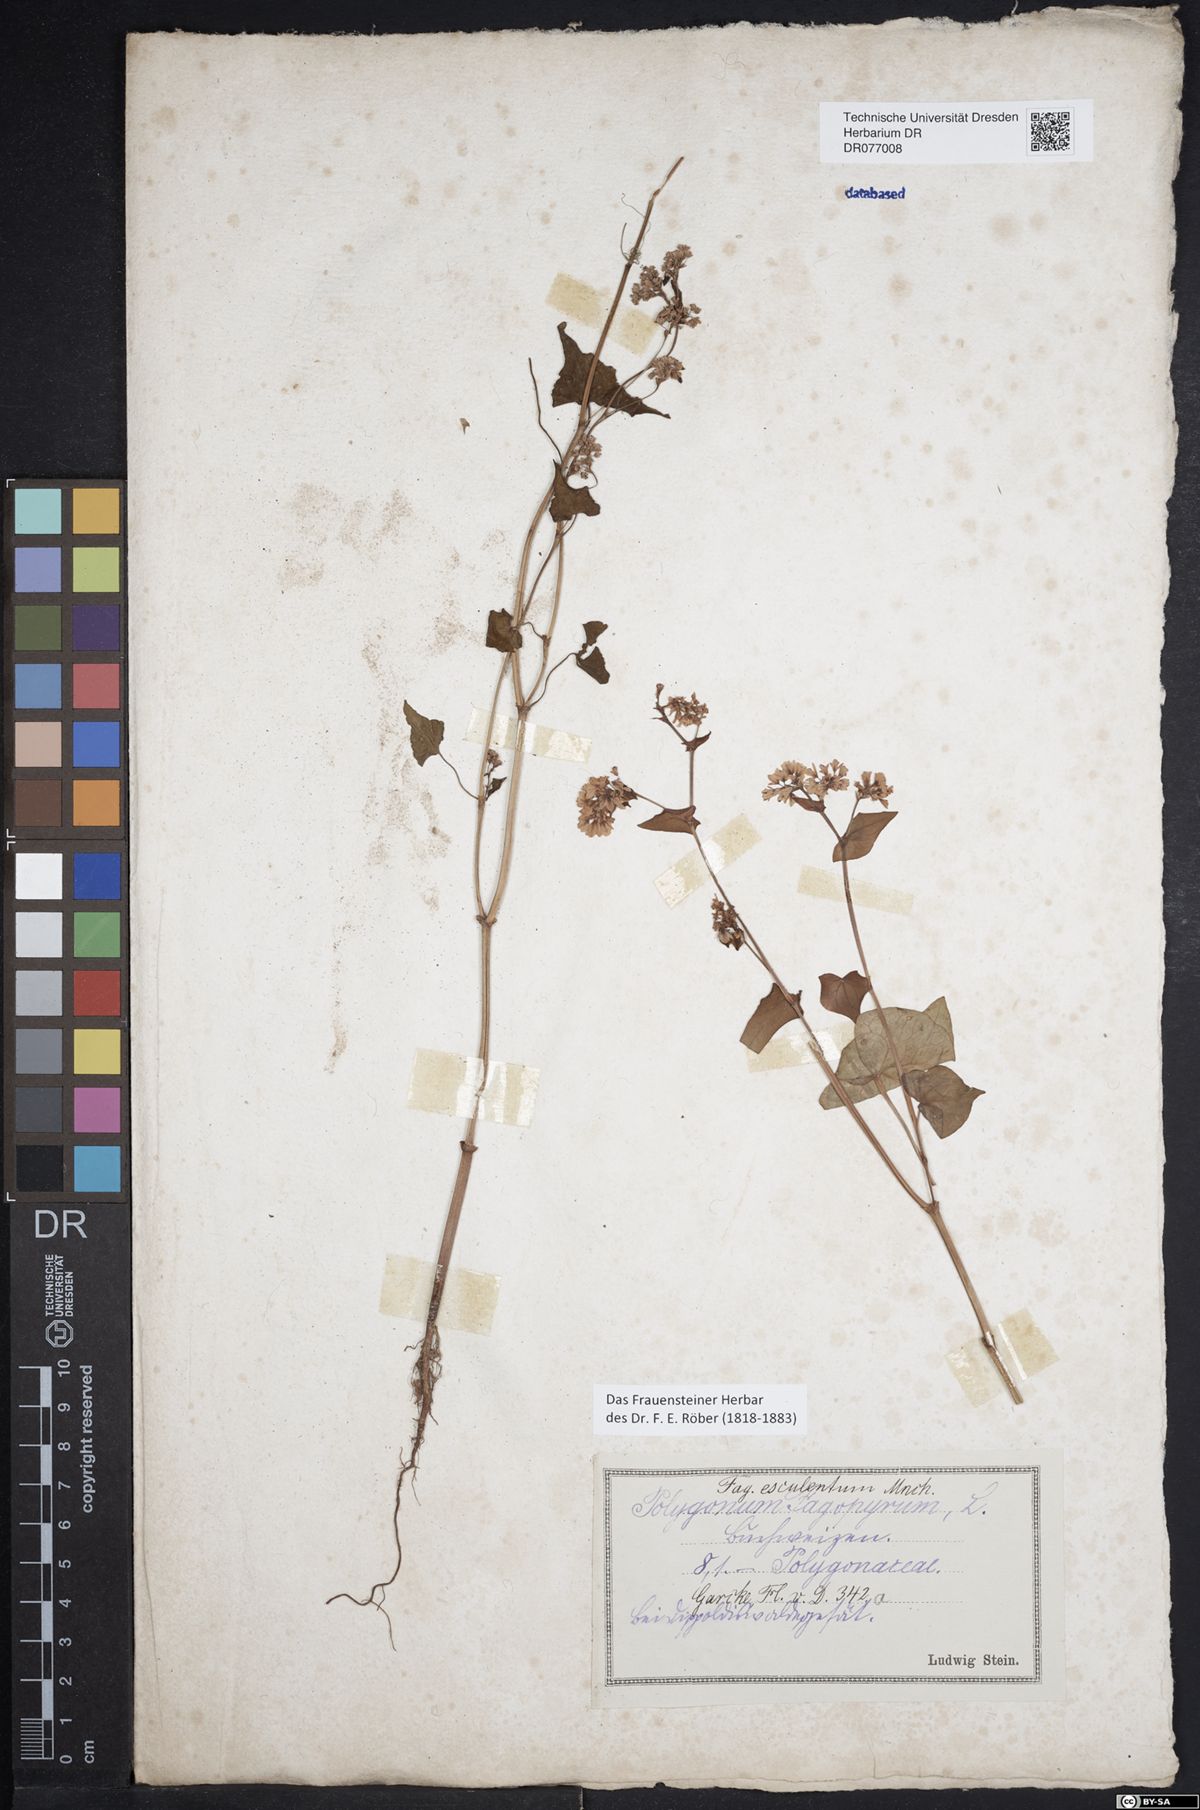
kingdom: Plantae
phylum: Tracheophyta
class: Magnoliopsida
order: Caryophyllales
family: Polygonaceae
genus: Fagopyrum
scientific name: Fagopyrum esculentum
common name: Buckwheat
